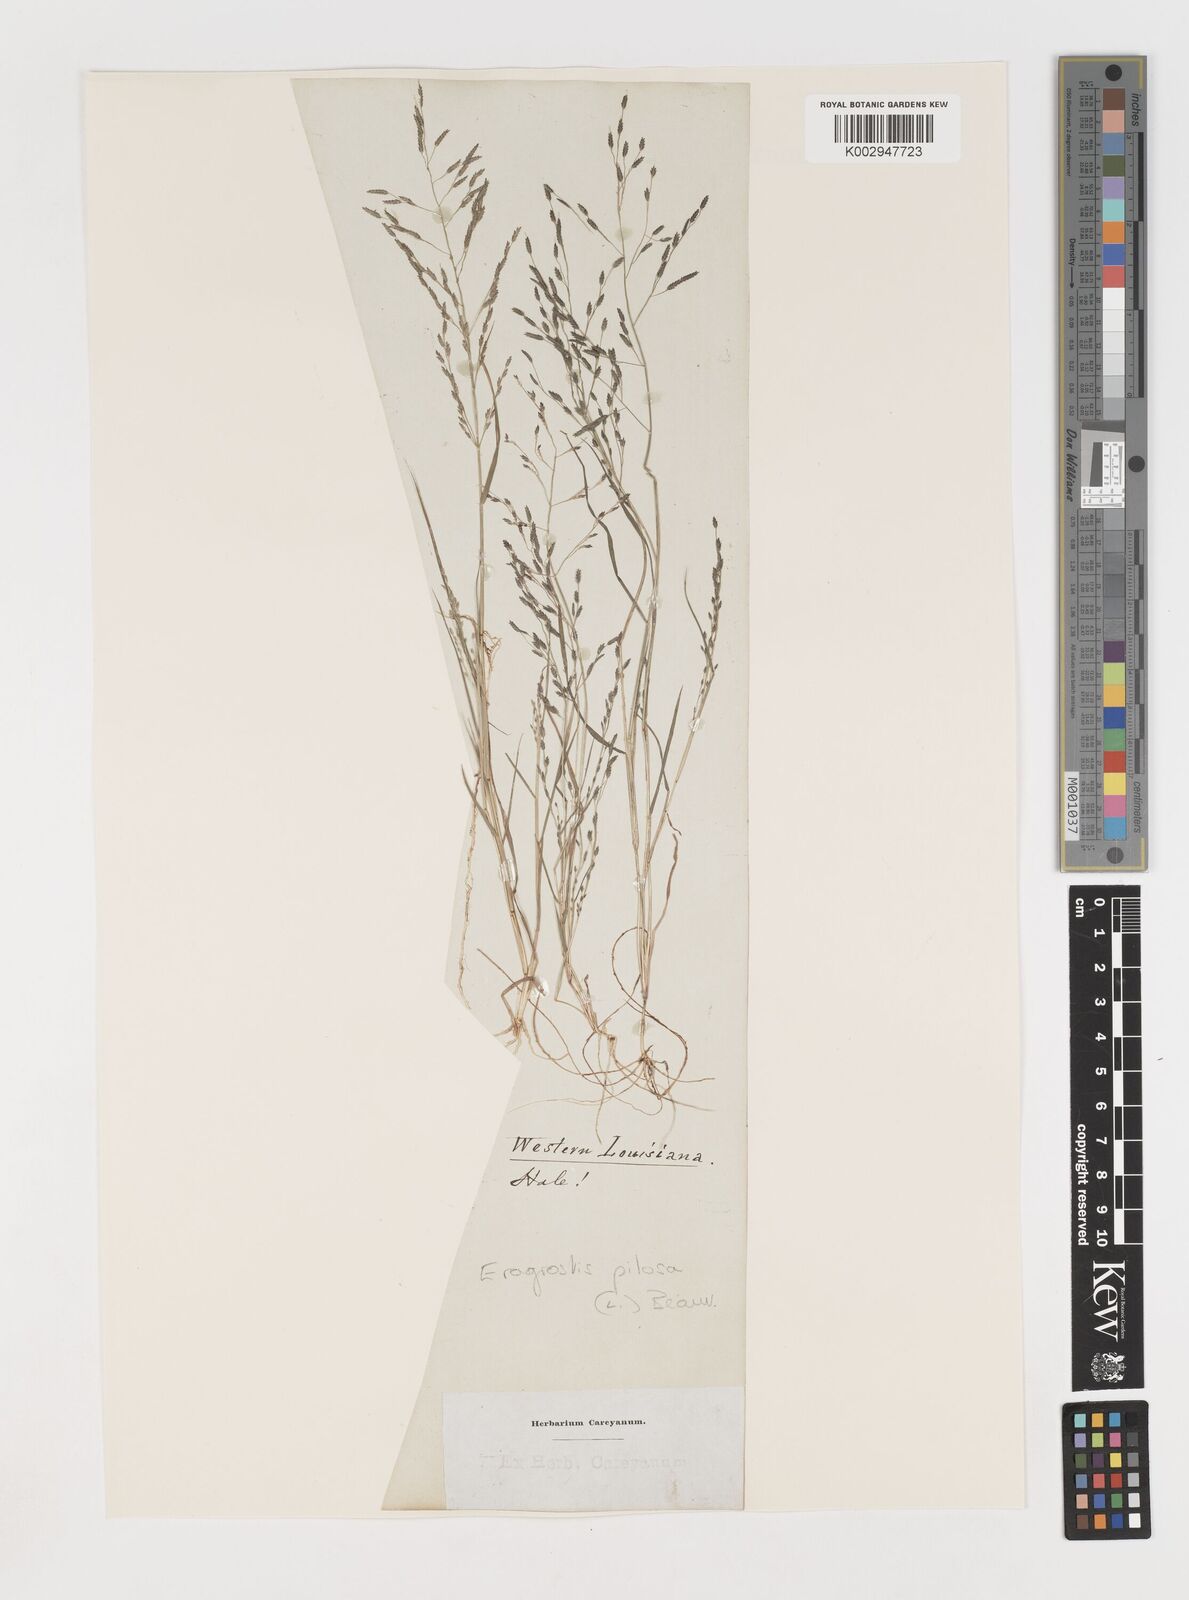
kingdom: Plantae
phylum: Tracheophyta
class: Liliopsida
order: Poales
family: Poaceae
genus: Eragrostis
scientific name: Eragrostis pilosa
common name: Indian lovegrass
